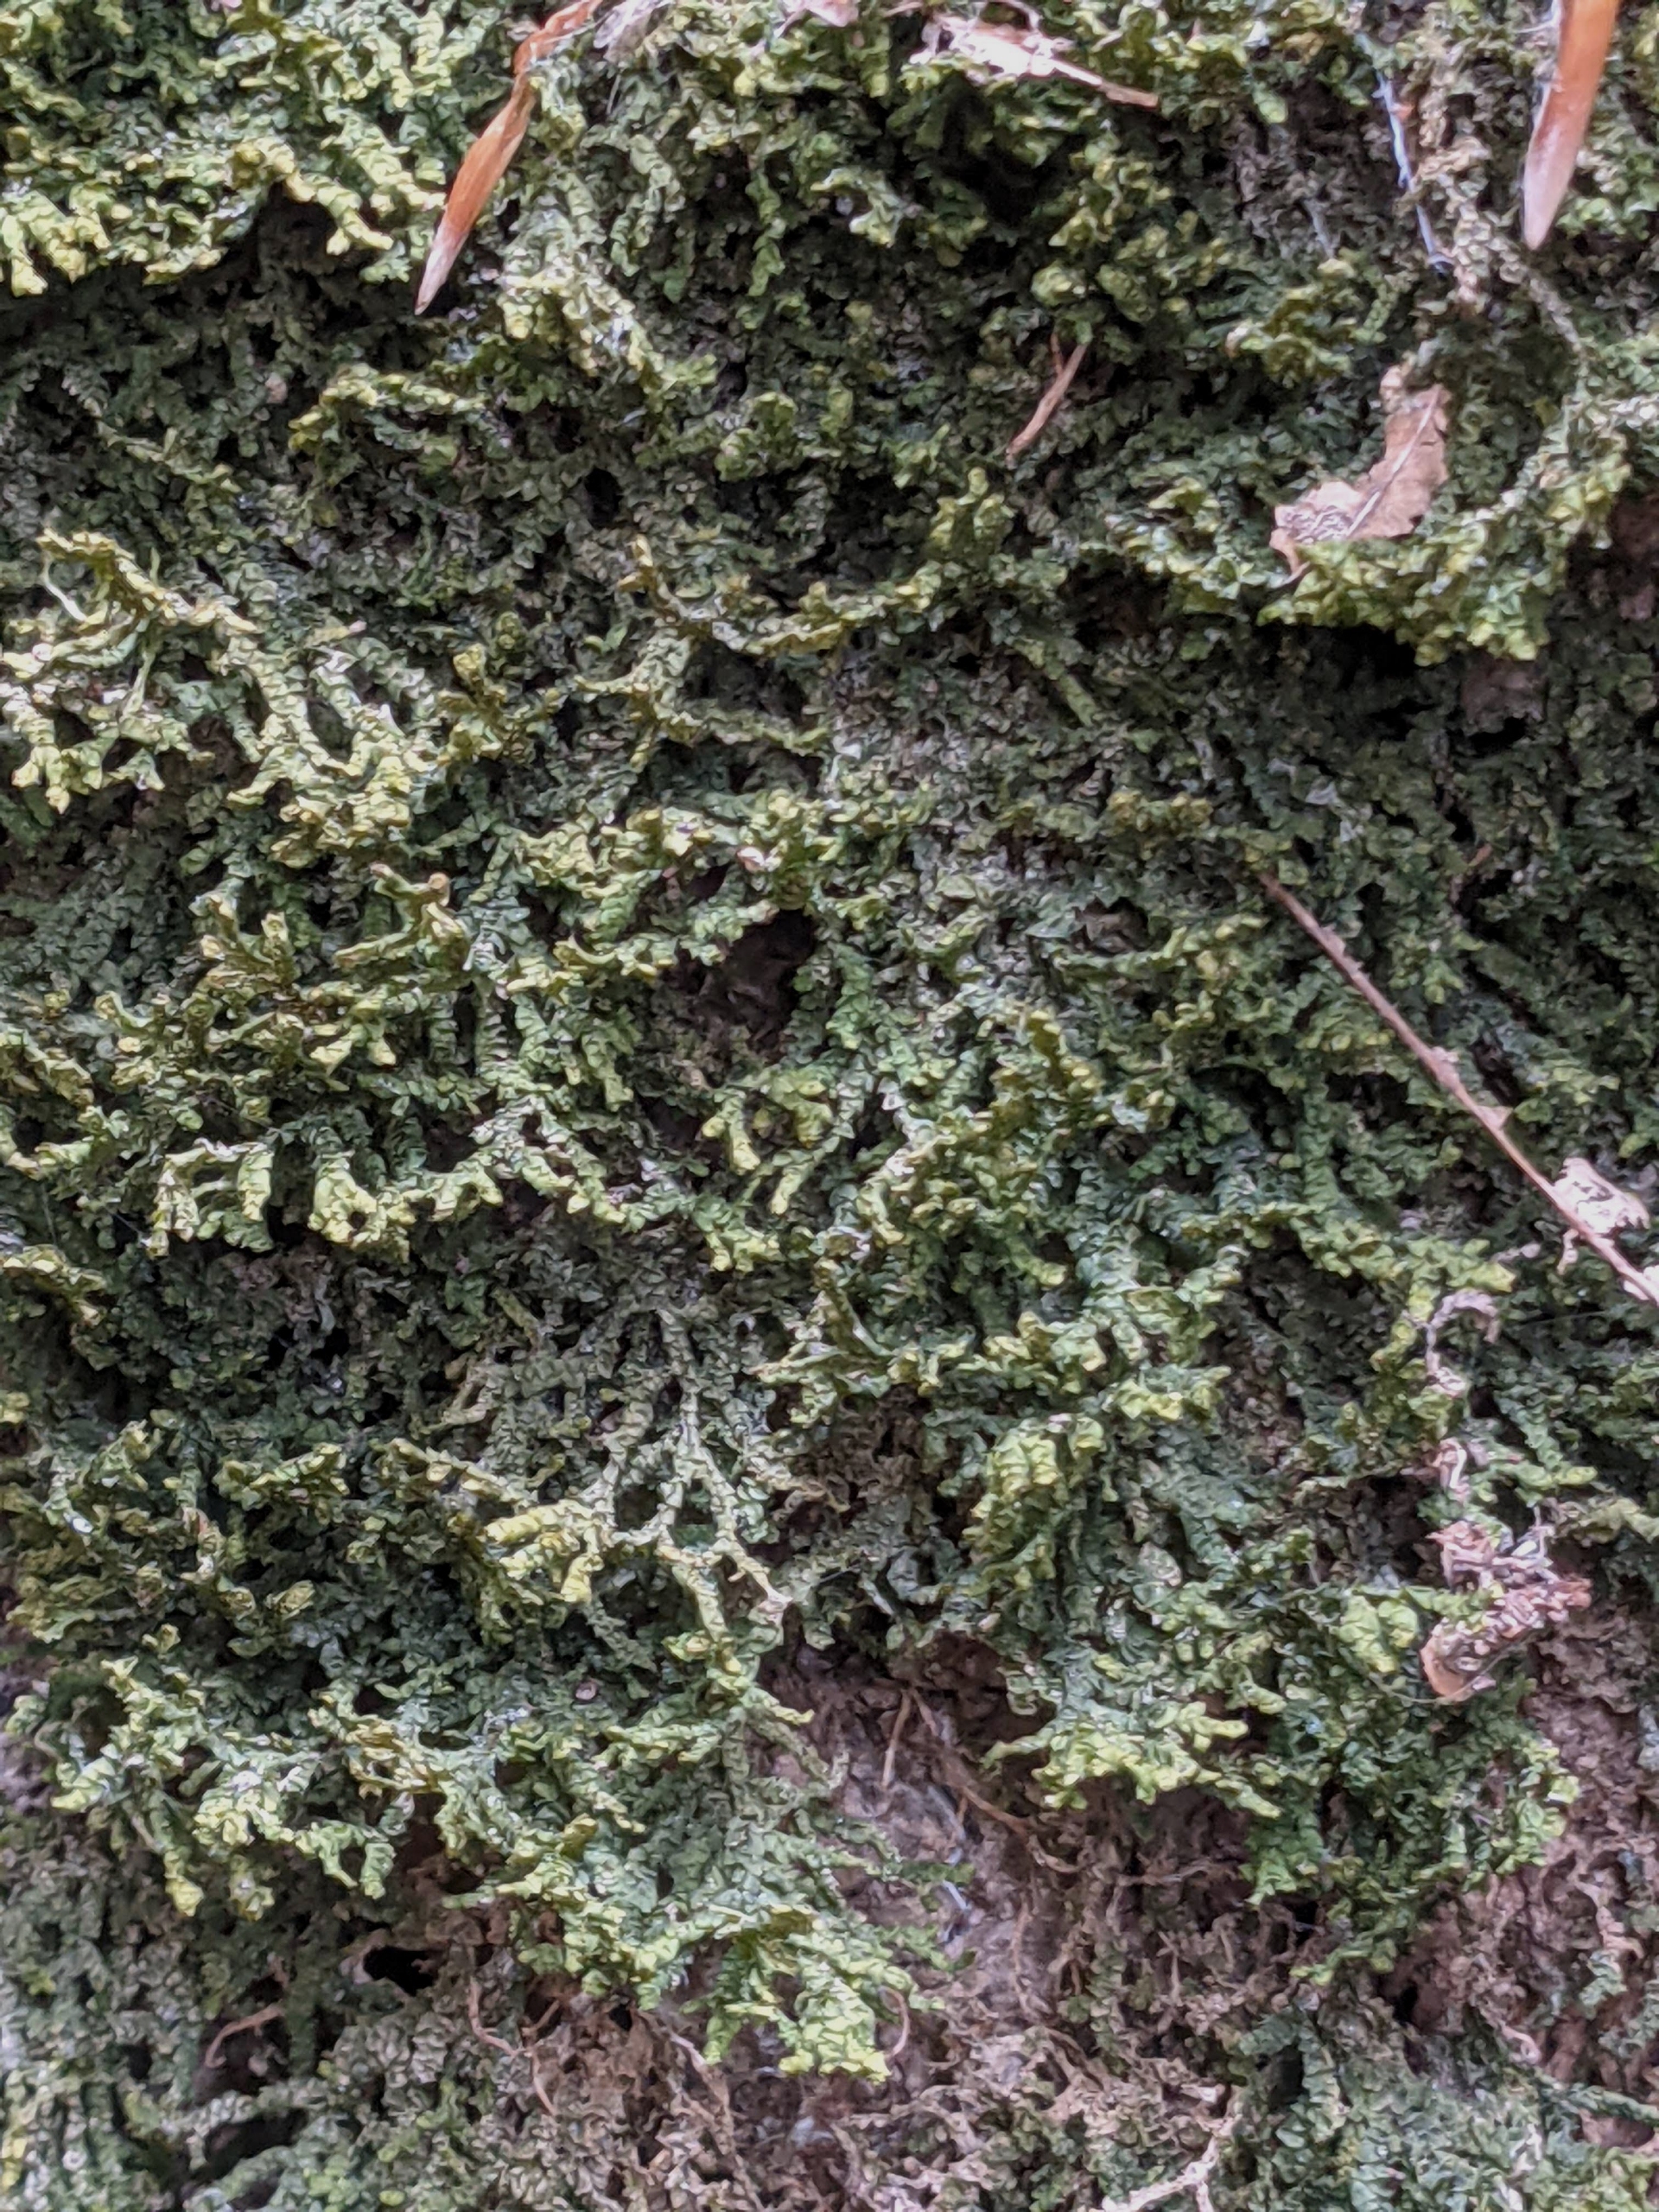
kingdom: Plantae
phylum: Marchantiophyta
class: Jungermanniopsida
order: Porellales
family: Porellaceae
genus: Porella
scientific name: Porella platyphylla
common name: Almindelig skælryg
